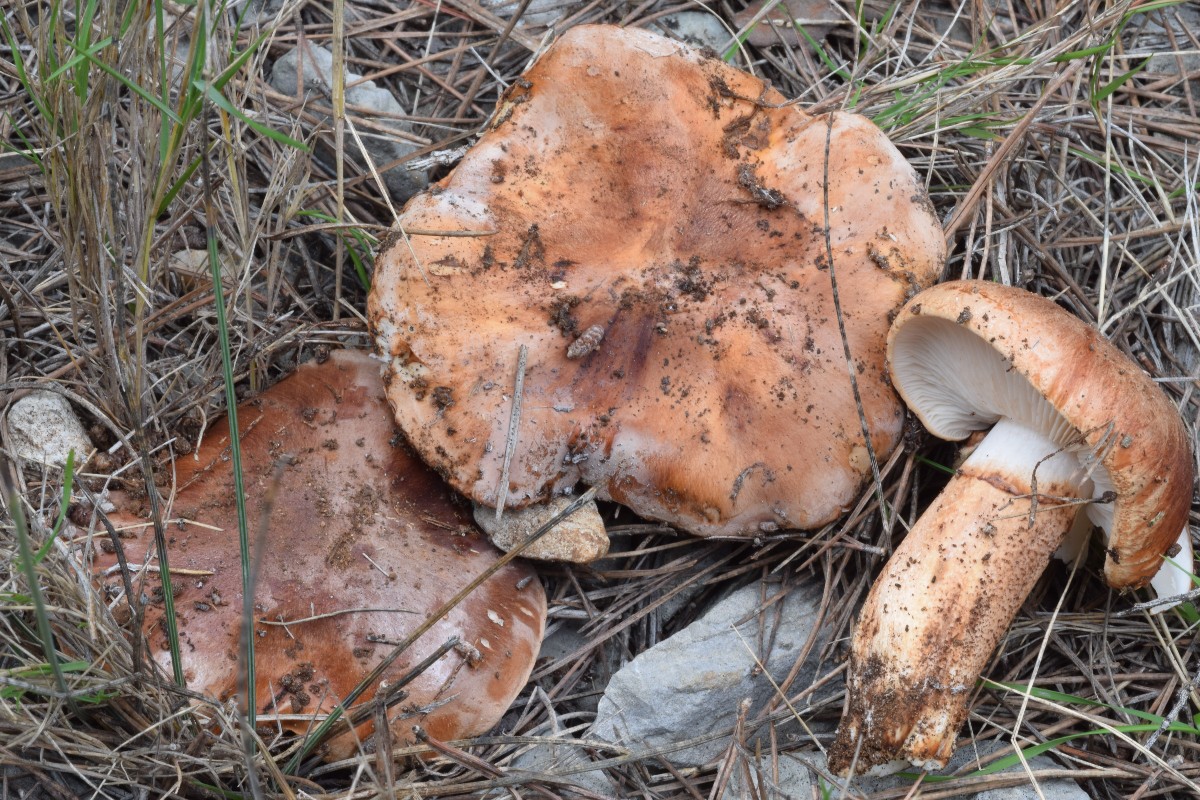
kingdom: Fungi
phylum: Basidiomycota
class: Agaricomycetes
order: Agaricales
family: Tricholomataceae
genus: Tricholoma
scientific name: Tricholoma fracticum
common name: hvidhalset ridderhat
